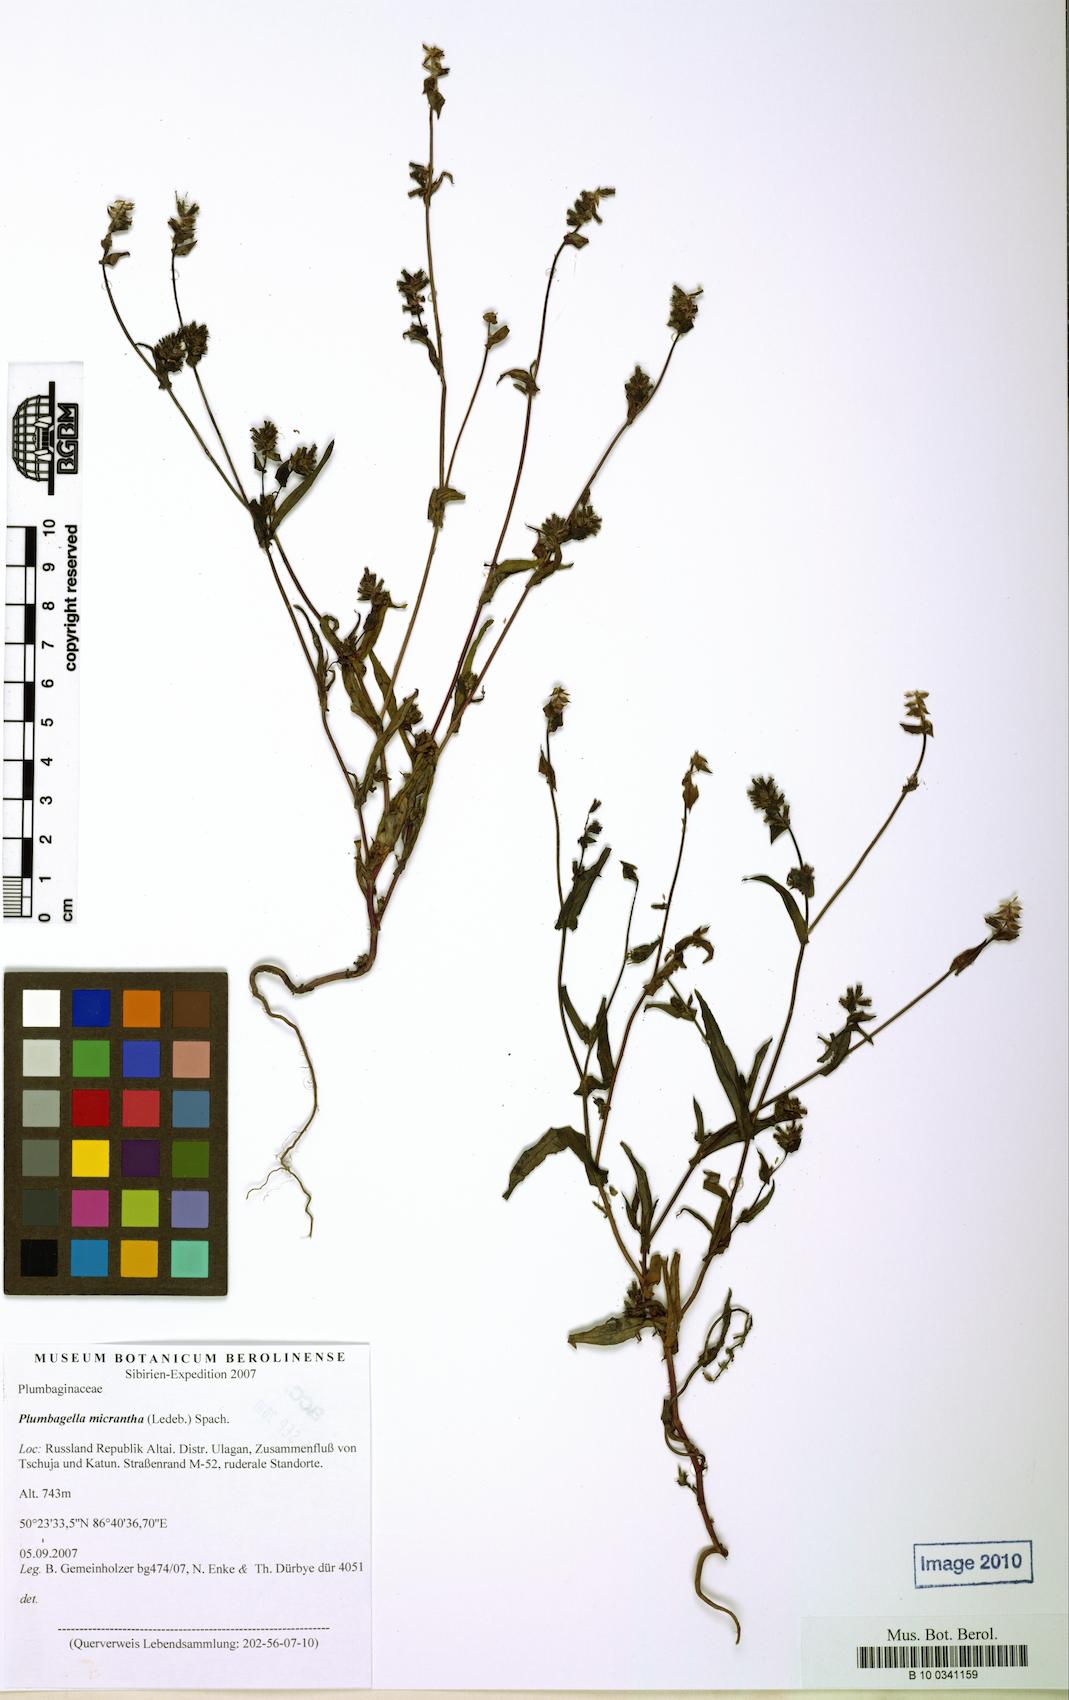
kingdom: Plantae
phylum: Tracheophyta
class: Magnoliopsida
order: Caryophyllales
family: Plumbaginaceae
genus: Plumbagella
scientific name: Plumbagella micrantha
